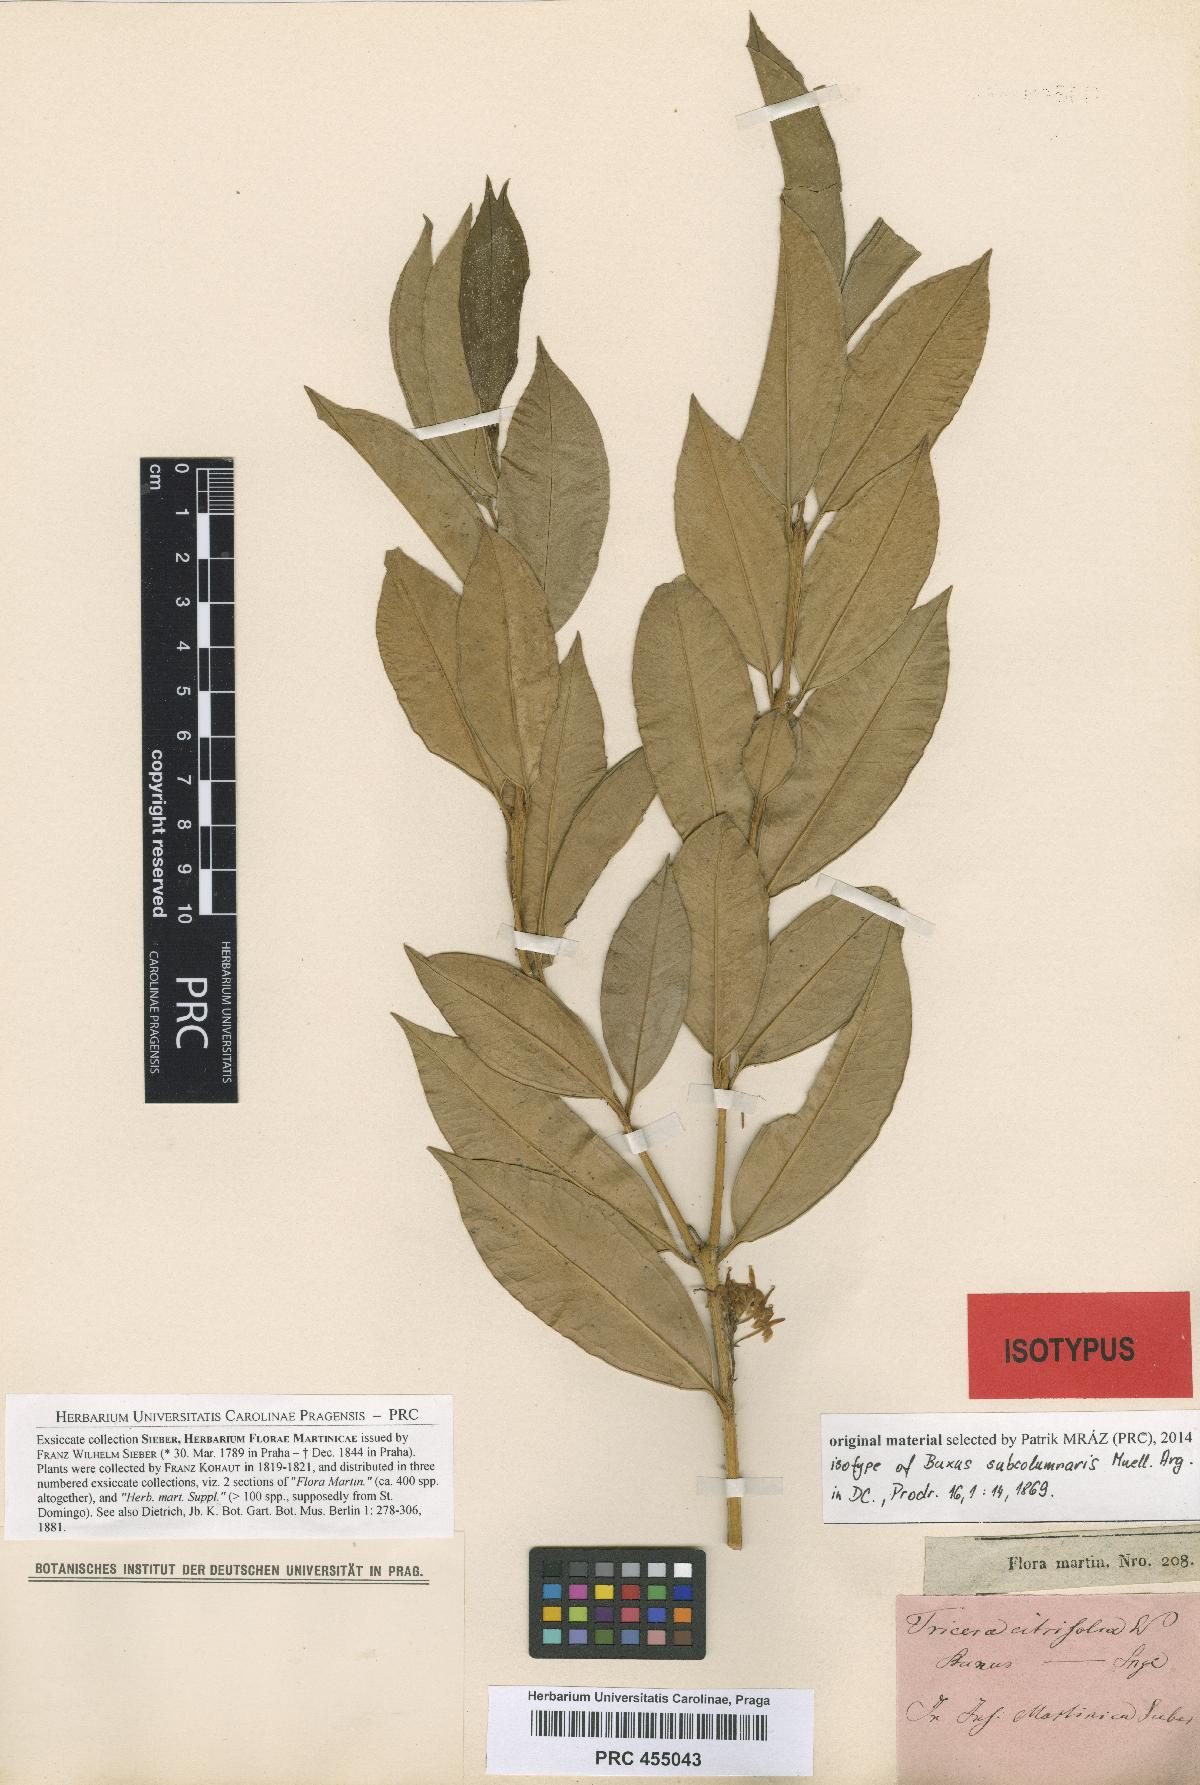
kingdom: Plantae
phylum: Tracheophyta
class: Magnoliopsida
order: Buxales
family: Buxaceae
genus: Buxus
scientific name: Buxus subcolumnaris
